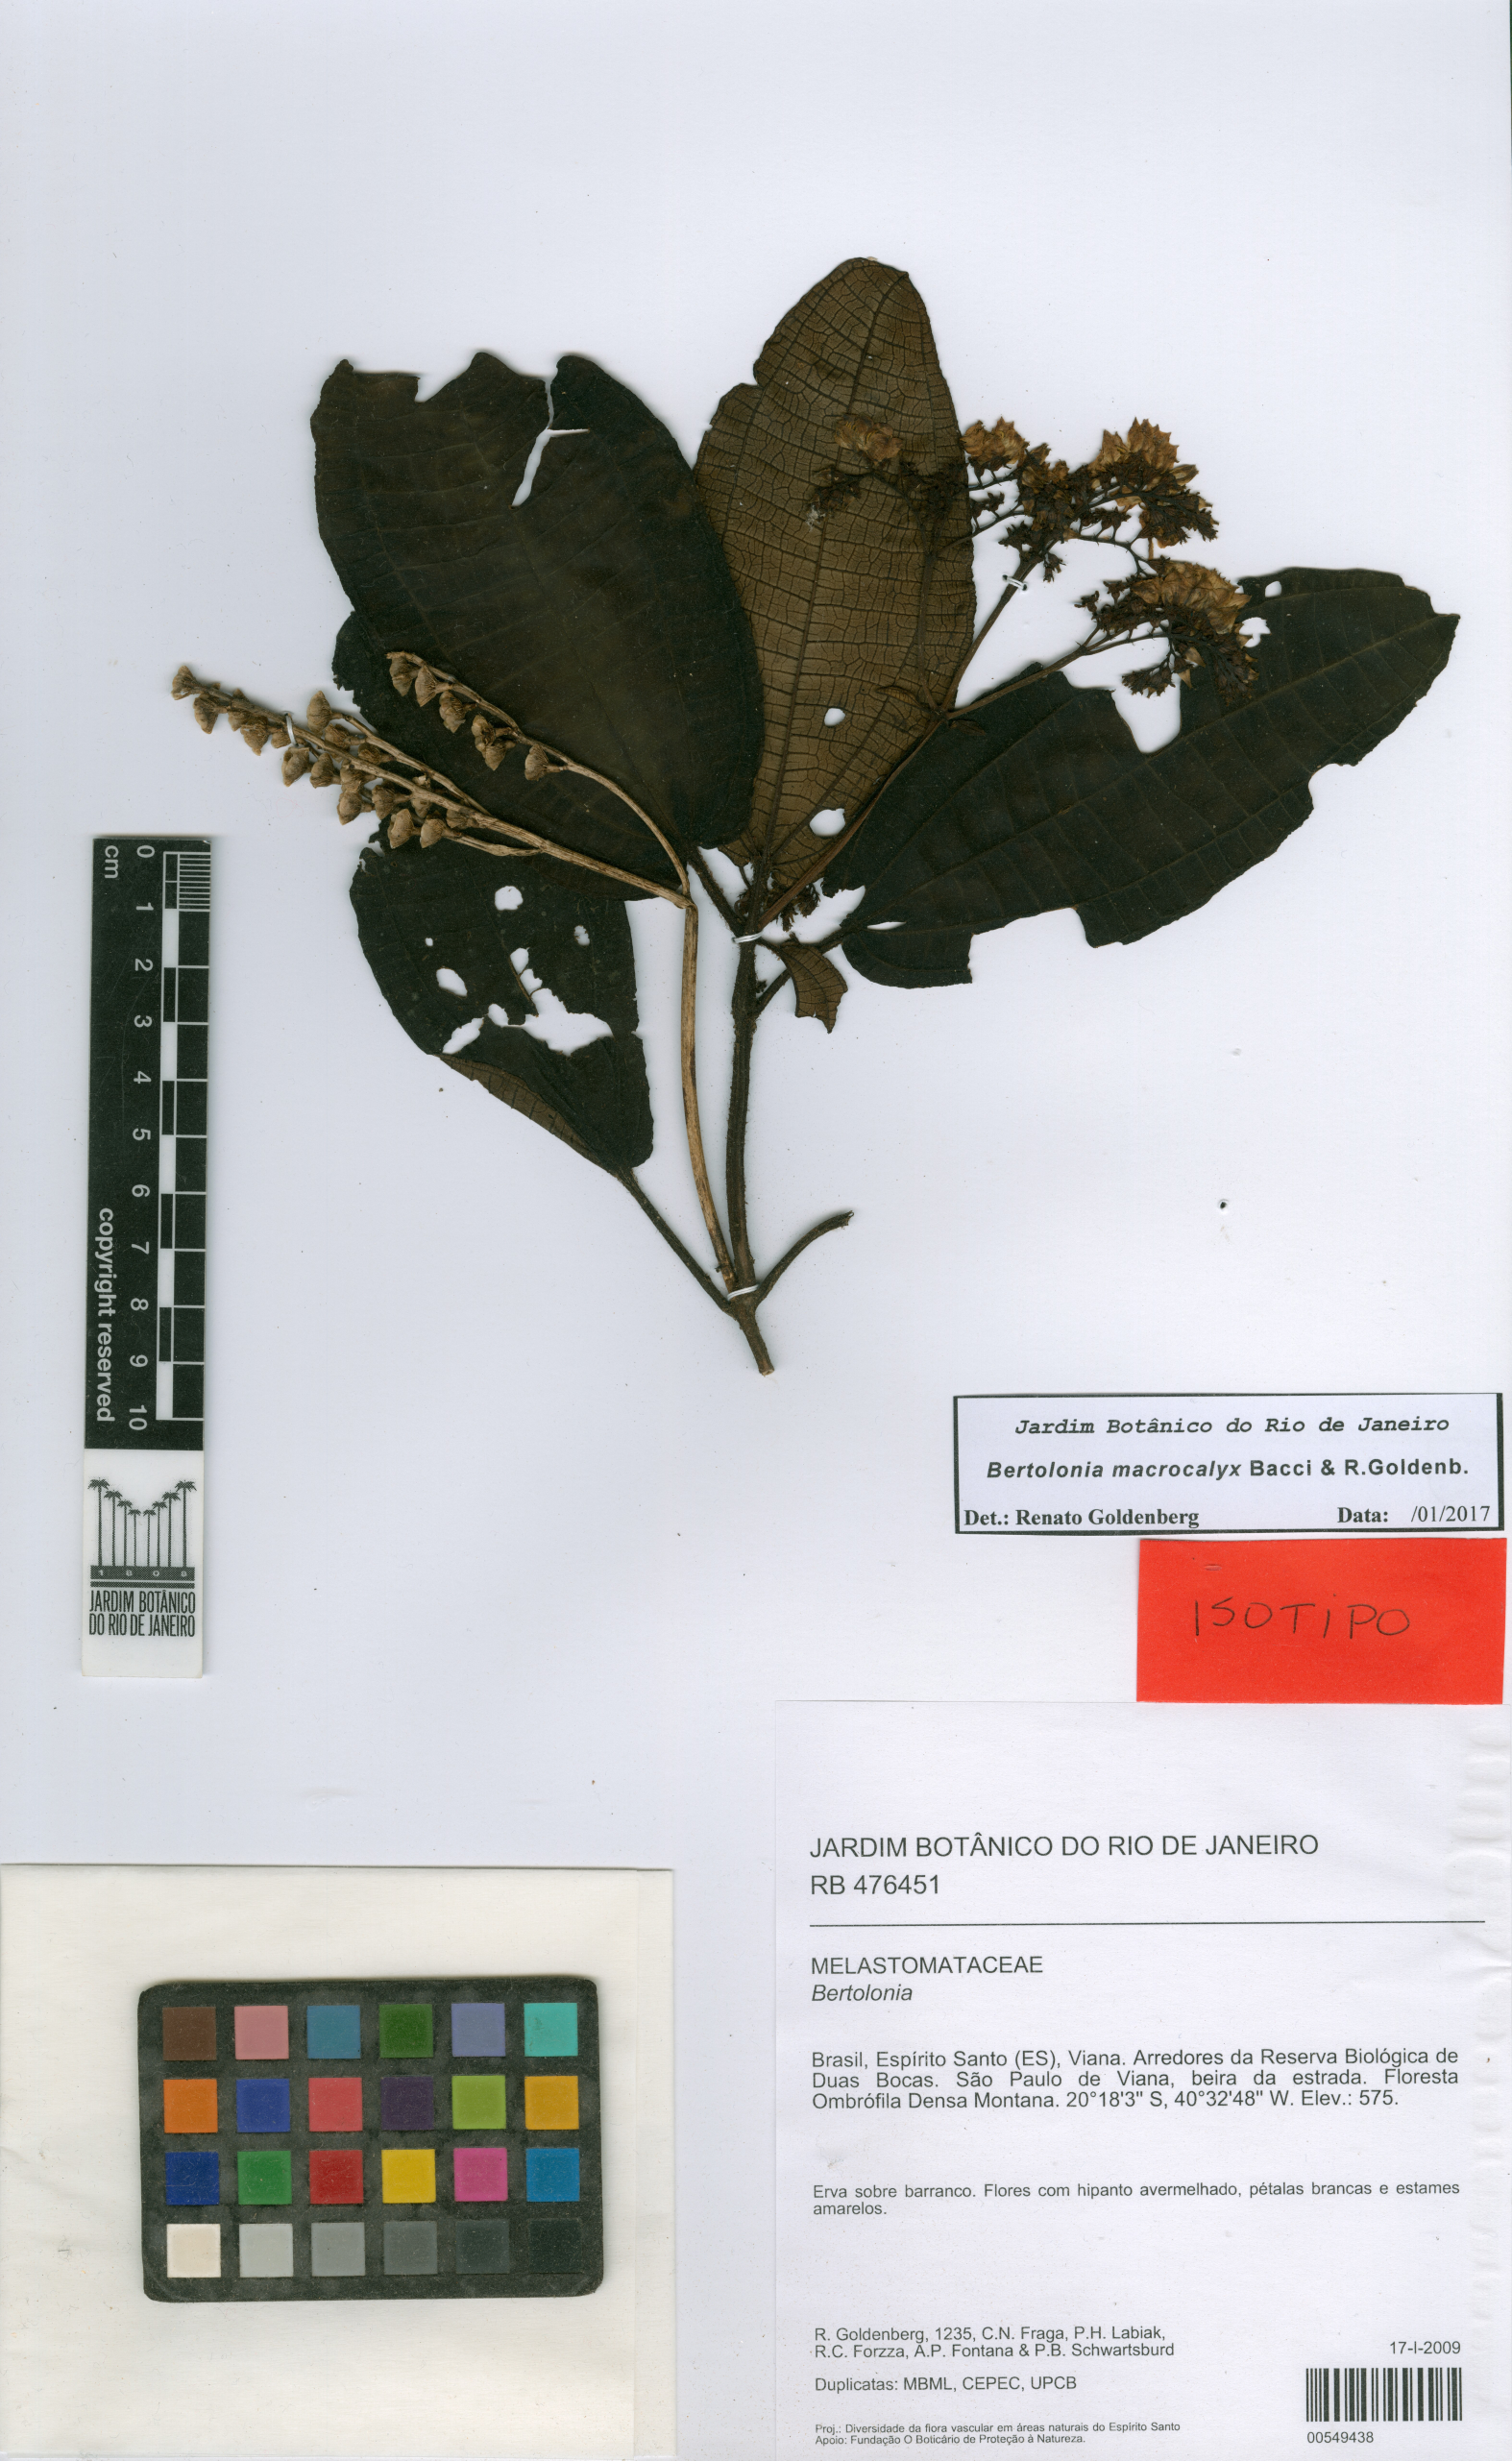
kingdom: Plantae
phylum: Tracheophyta
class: Magnoliopsida
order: Myrtales
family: Melastomataceae
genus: Bertolonia
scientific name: Bertolonia macrocalyx
